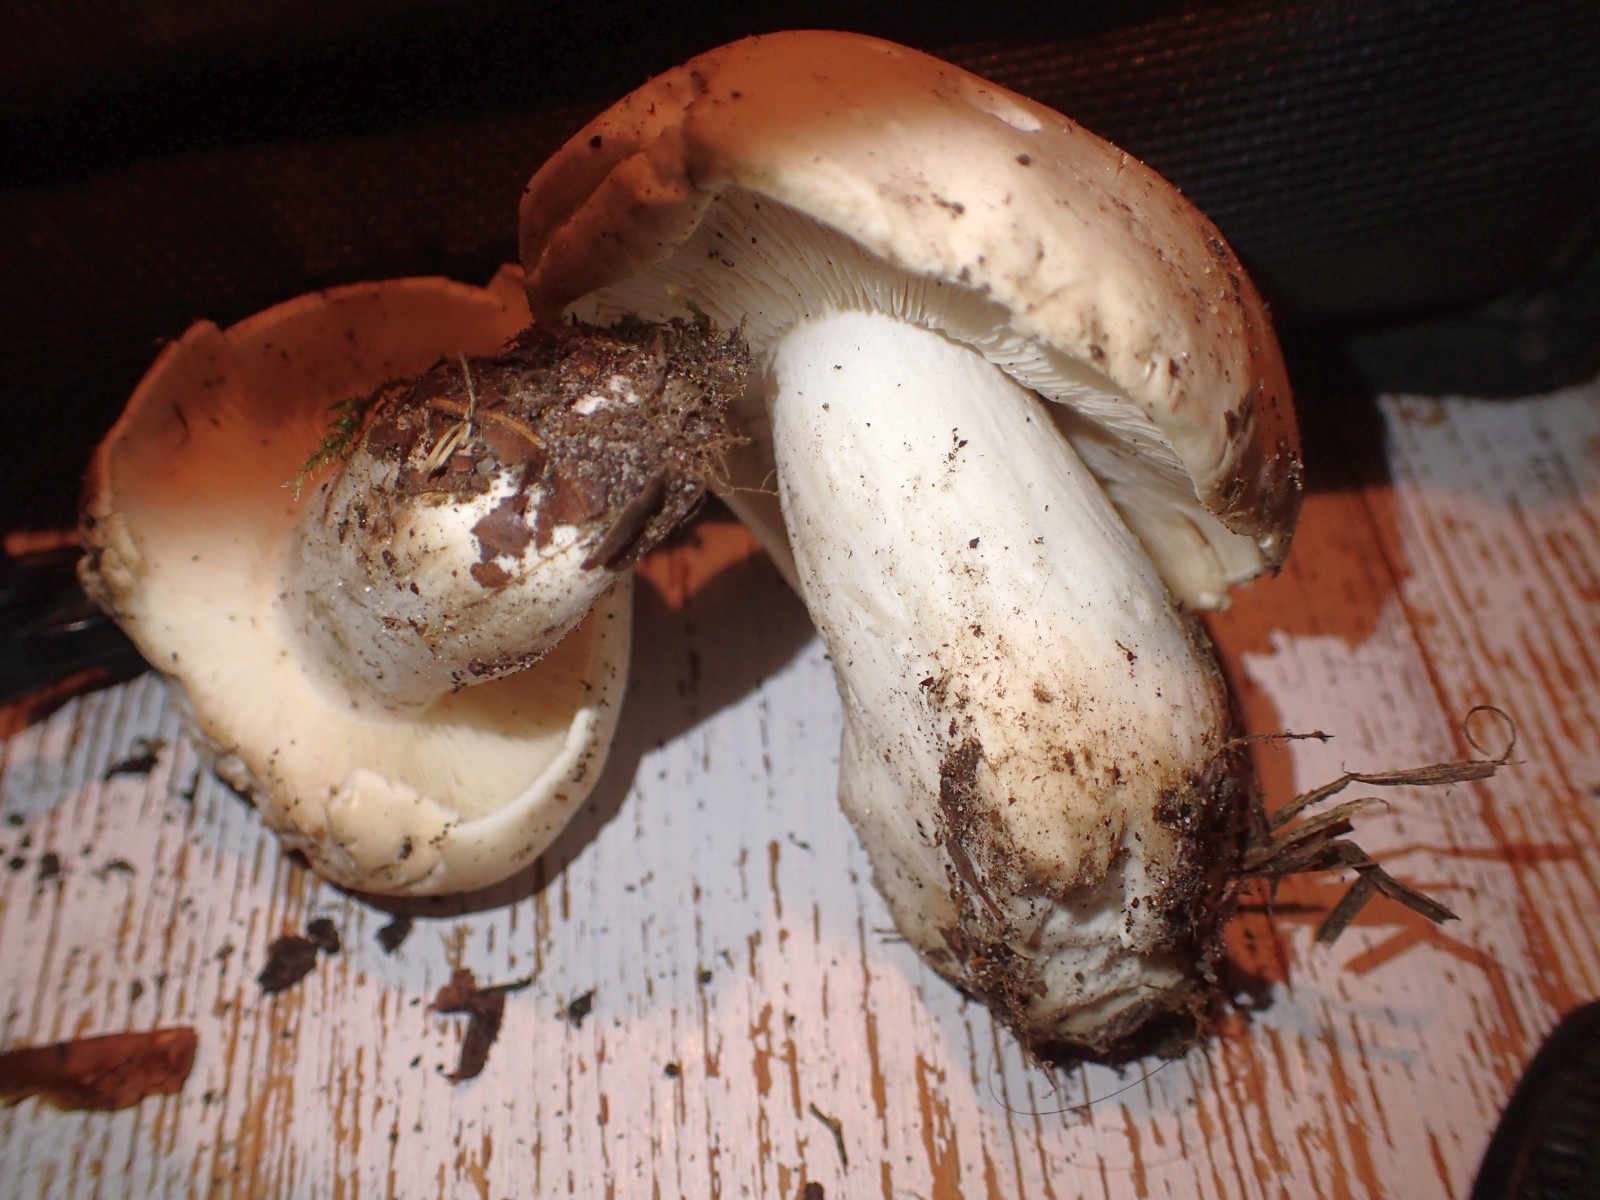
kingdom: Fungi
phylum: Basidiomycota
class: Agaricomycetes
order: Agaricales
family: Lyophyllaceae
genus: Calocybe
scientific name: Calocybe gambosa
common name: vårmusseron
